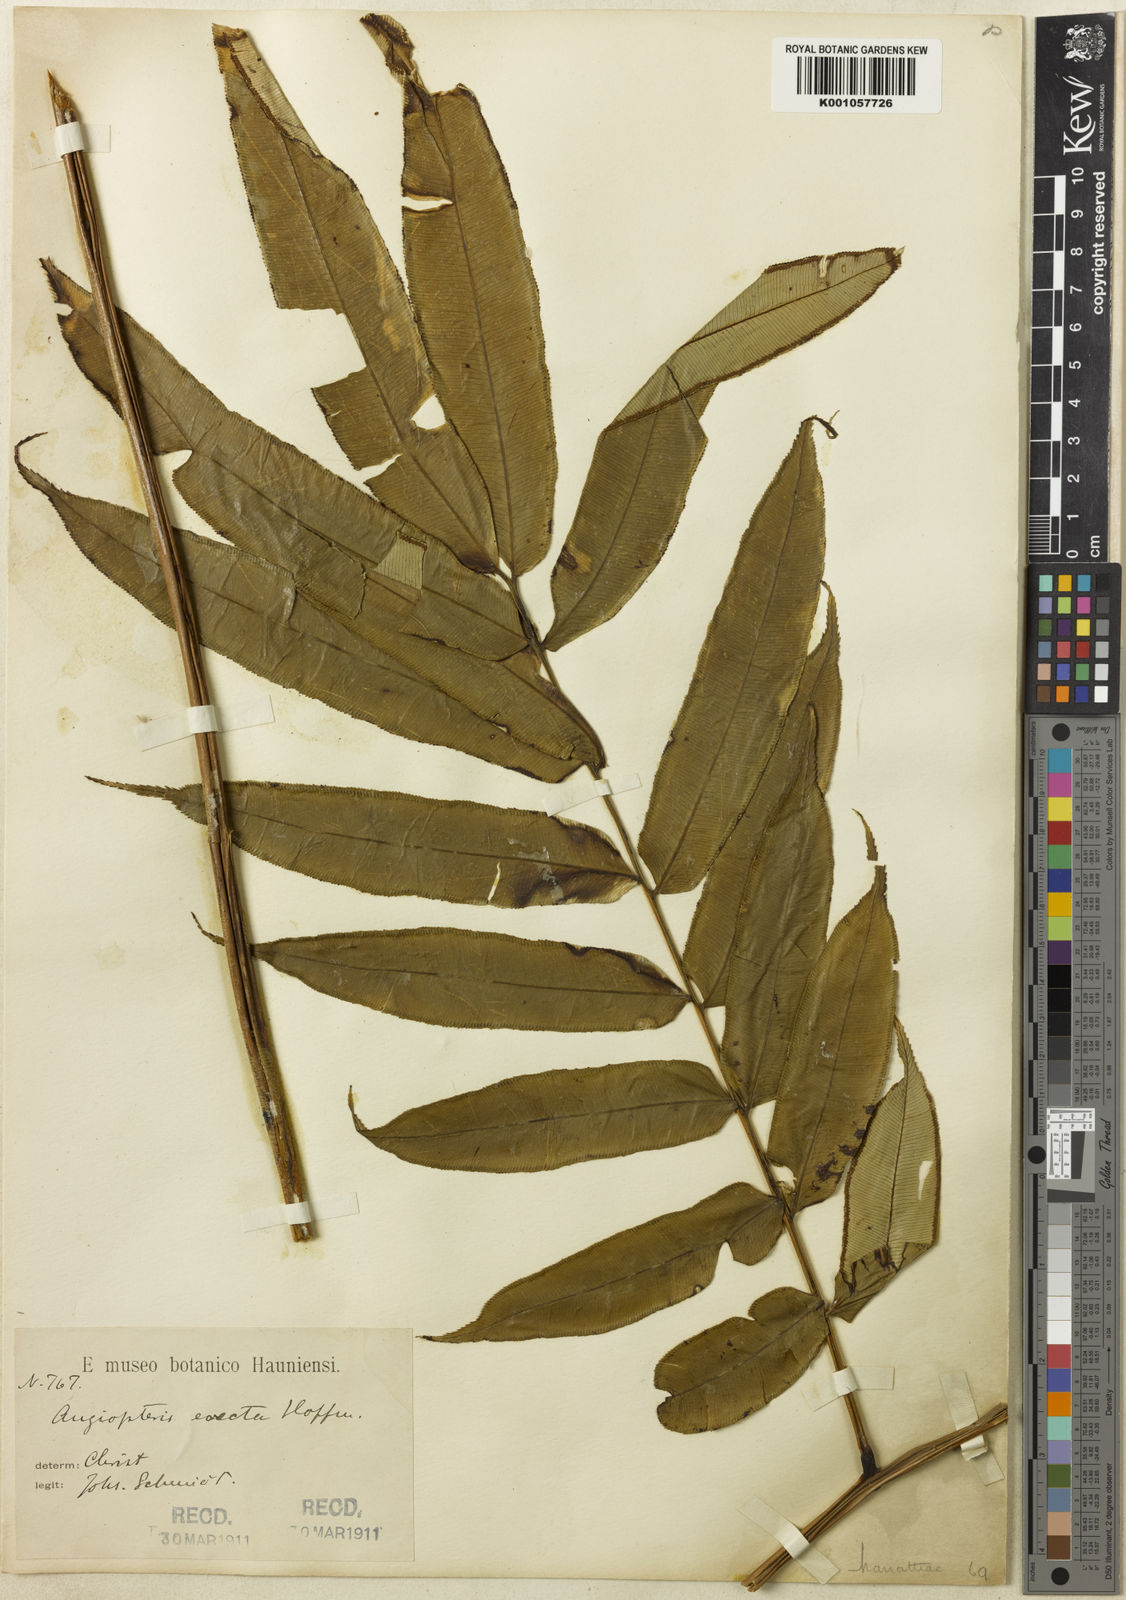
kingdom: Plantae
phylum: Tracheophyta
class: Polypodiopsida
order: Marattiales
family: Marattiaceae
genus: Angiopteris
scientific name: Angiopteris helferiana
